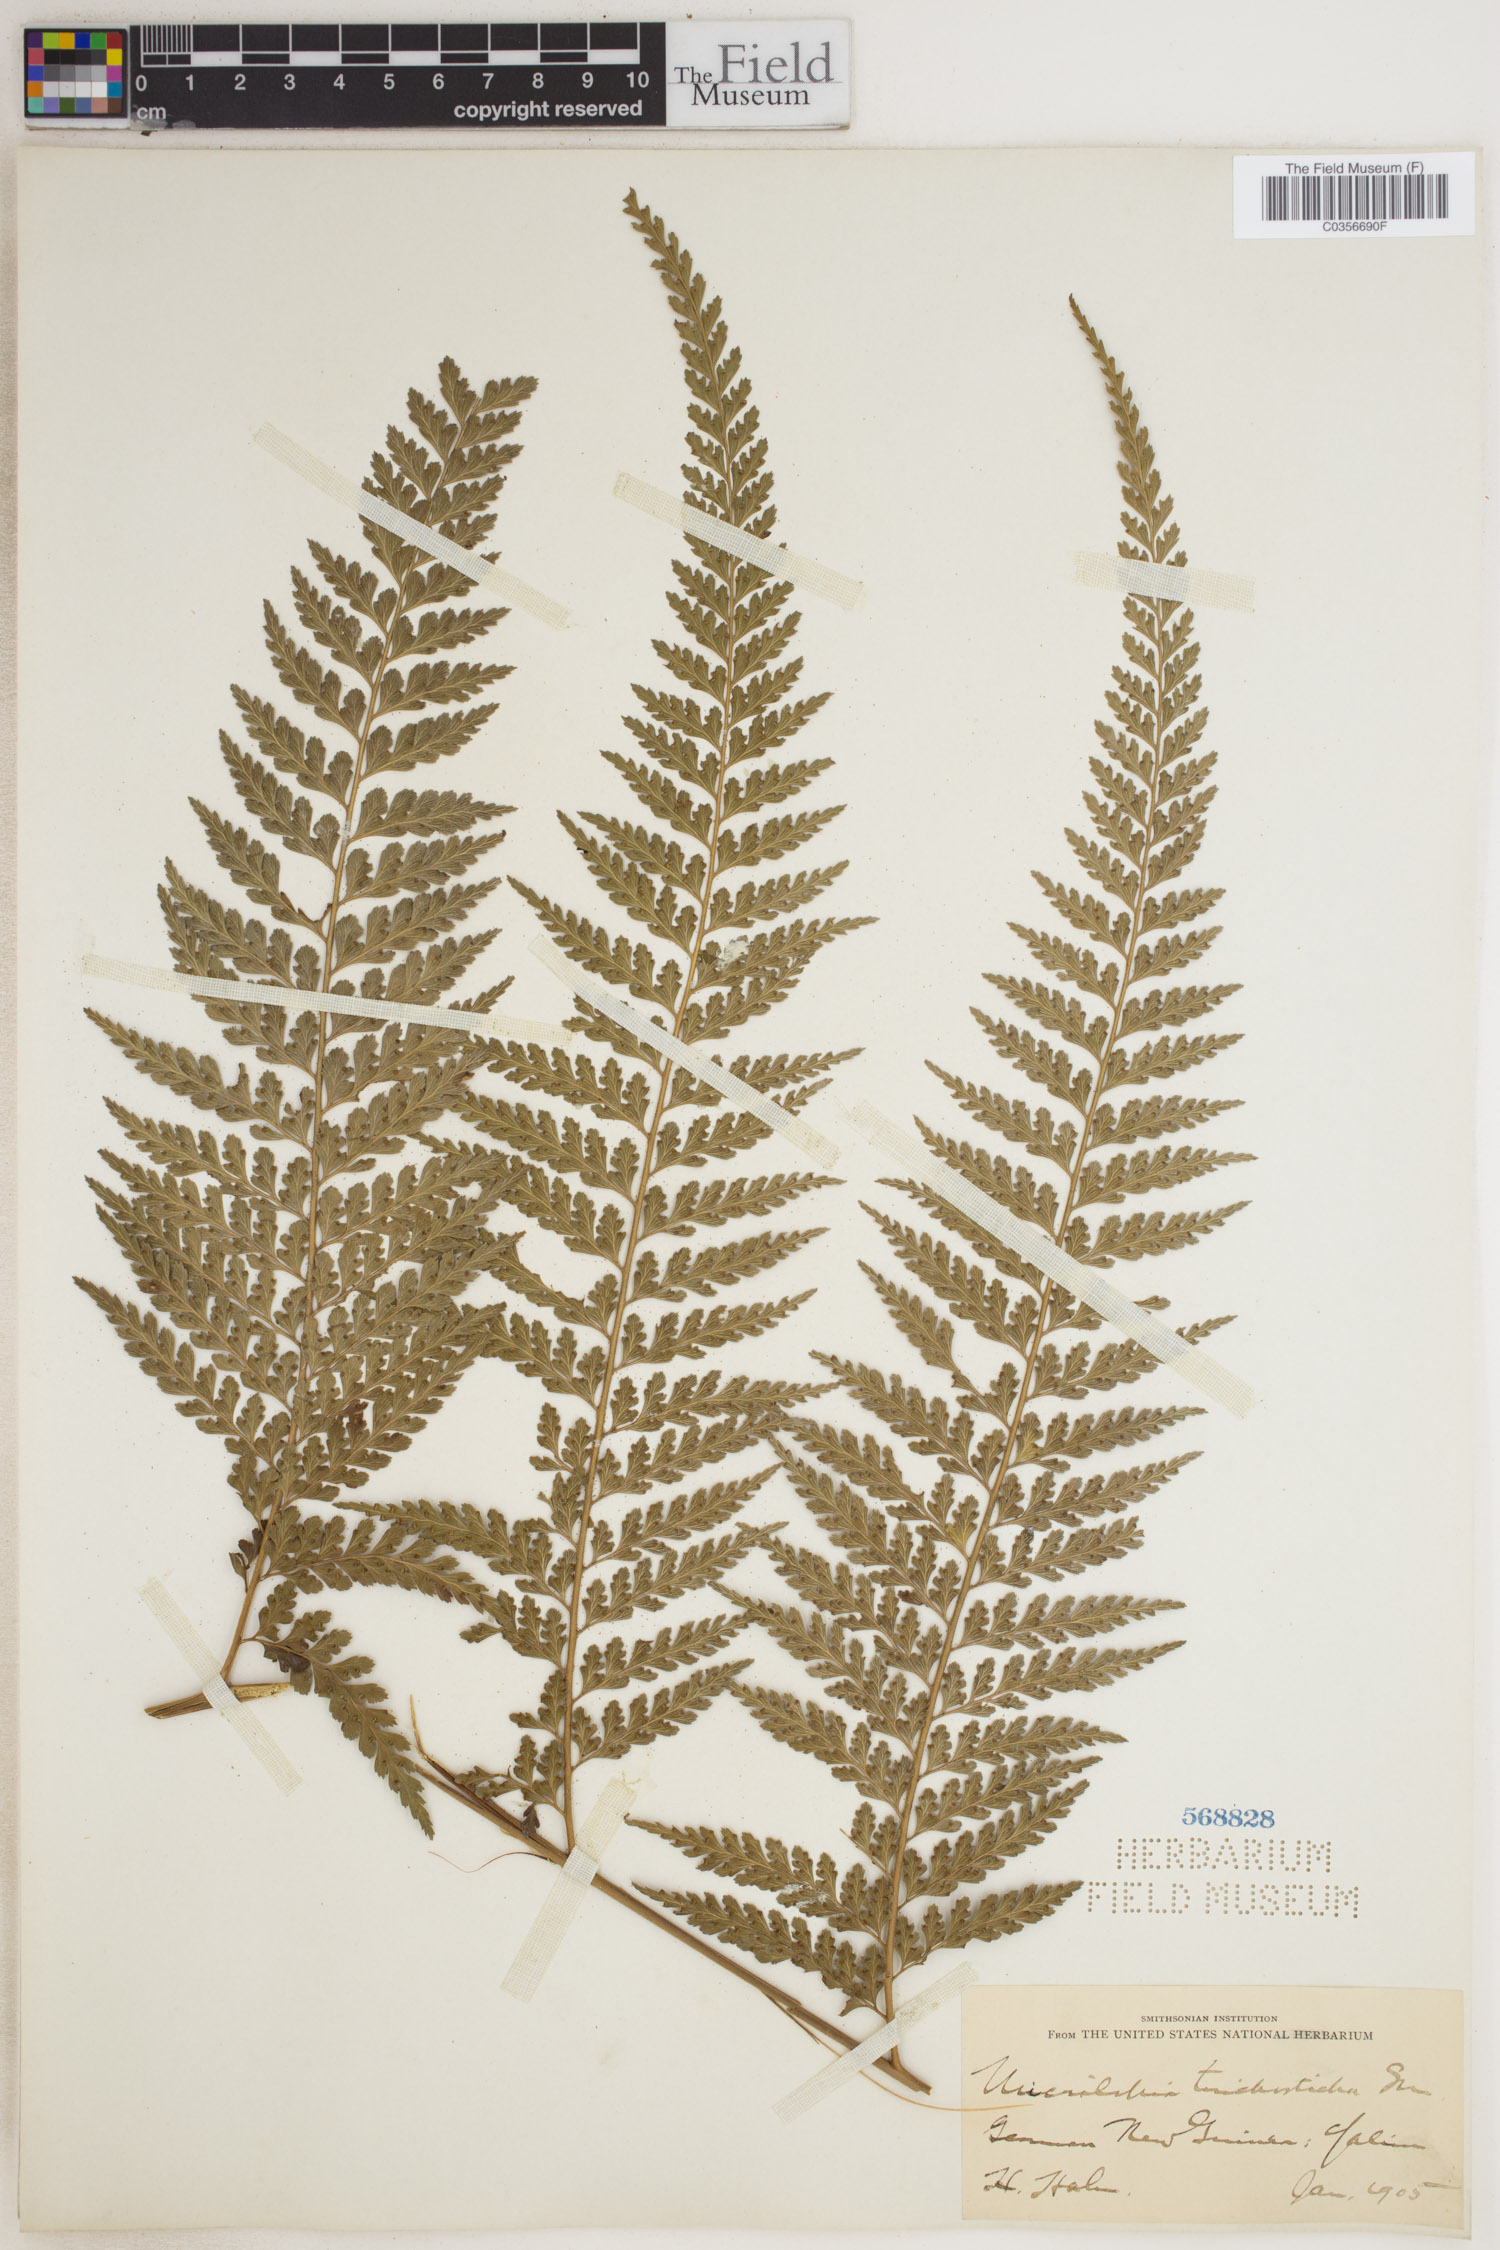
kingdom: Plantae
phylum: Tracheophyta
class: Polypodiopsida
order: Polypodiales
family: Dennstaedtiaceae
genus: Microlepia
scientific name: Microlepia
